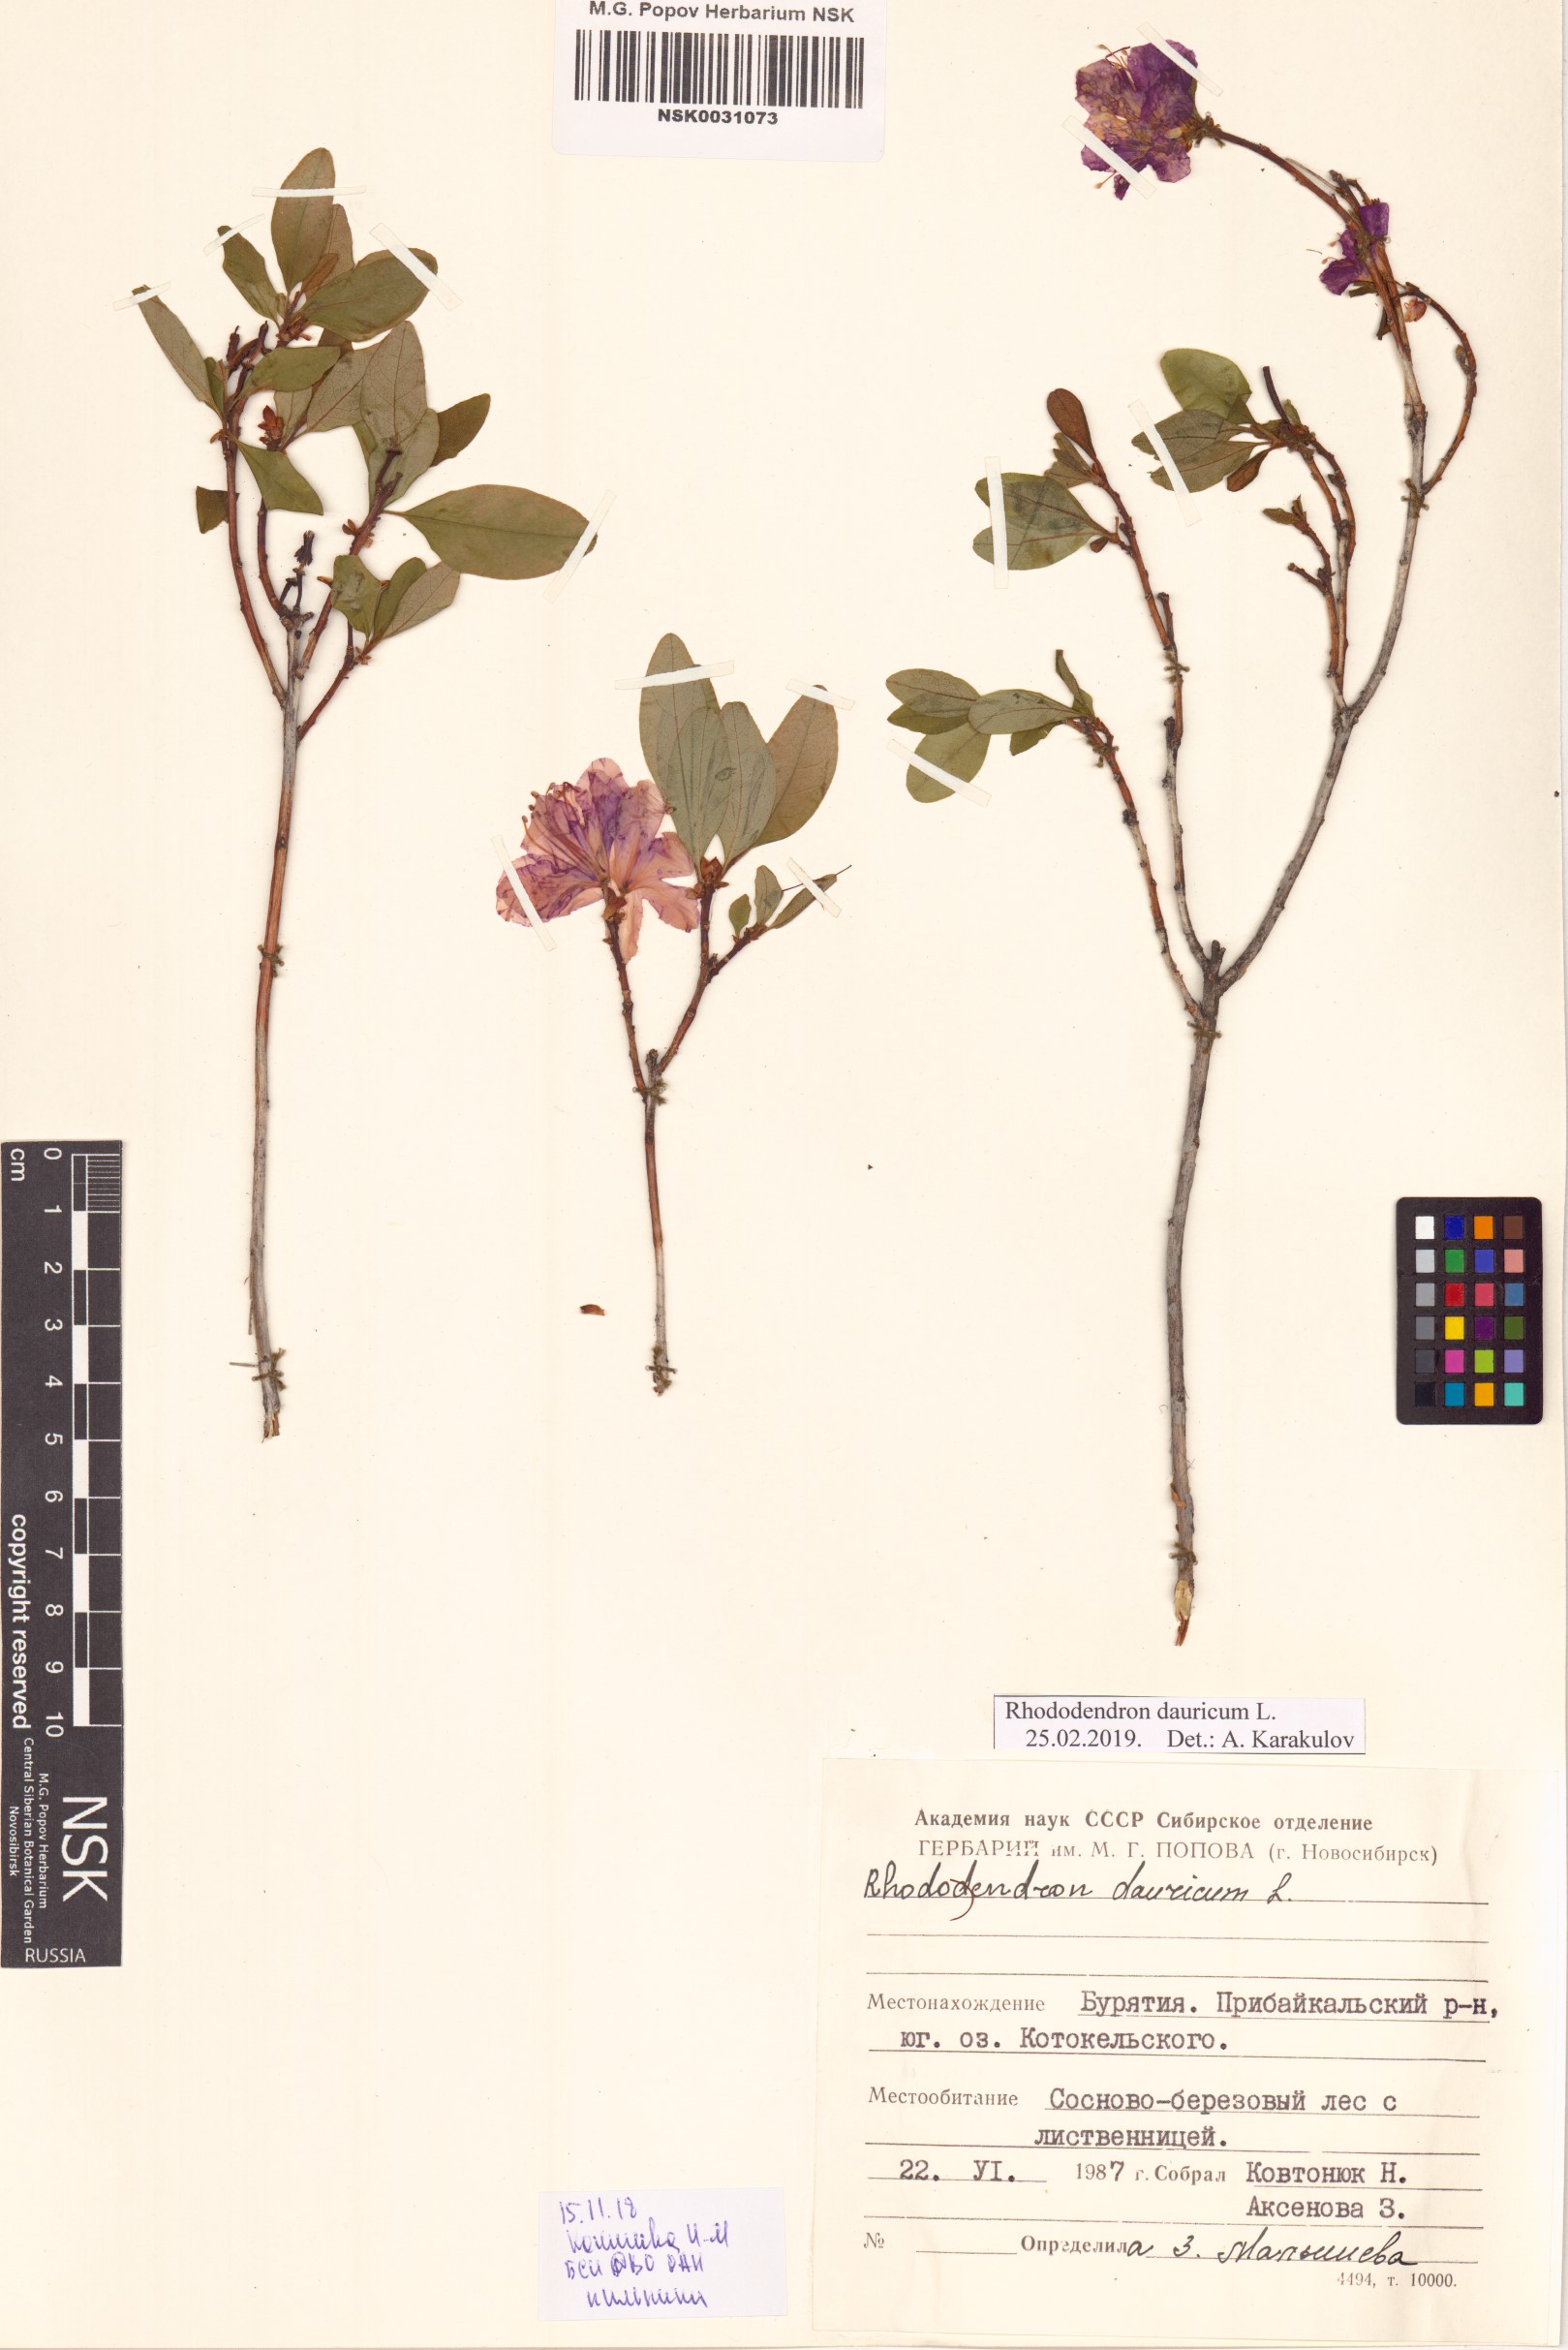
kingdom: Plantae
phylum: Tracheophyta
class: Magnoliopsida
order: Ericales
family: Ericaceae
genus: Rhododendron
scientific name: Rhododendron dauricum
